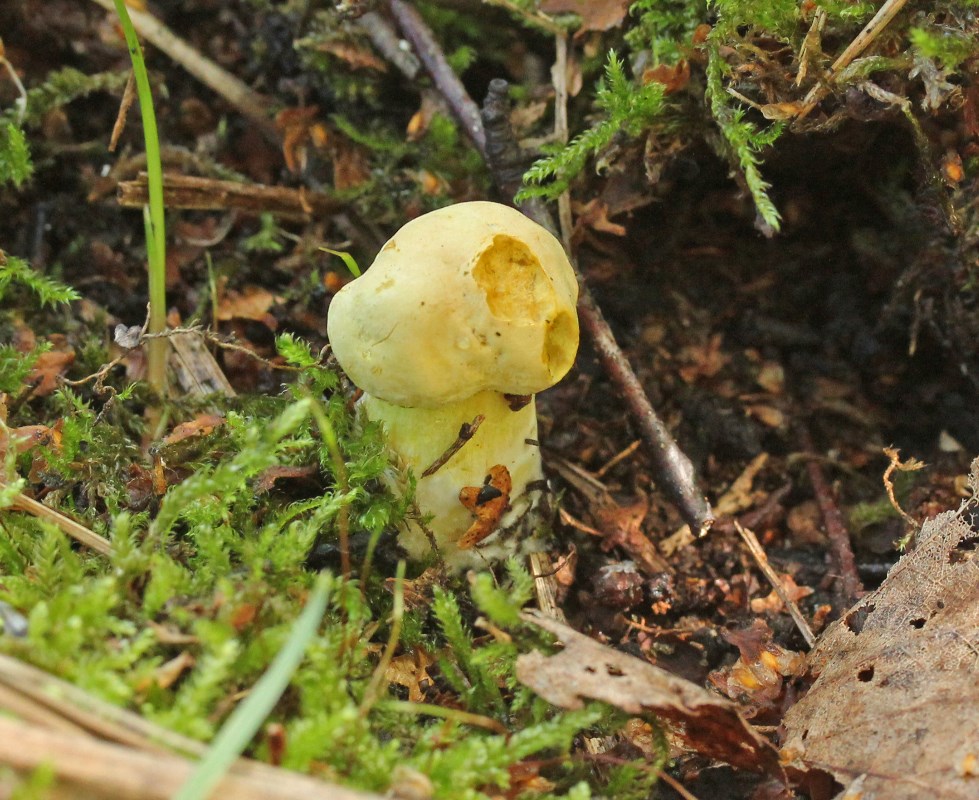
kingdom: Fungi
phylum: Basidiomycota
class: Agaricomycetes
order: Agaricales
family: Tricholomataceae
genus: Tricholoma
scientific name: Tricholoma sulphureum
